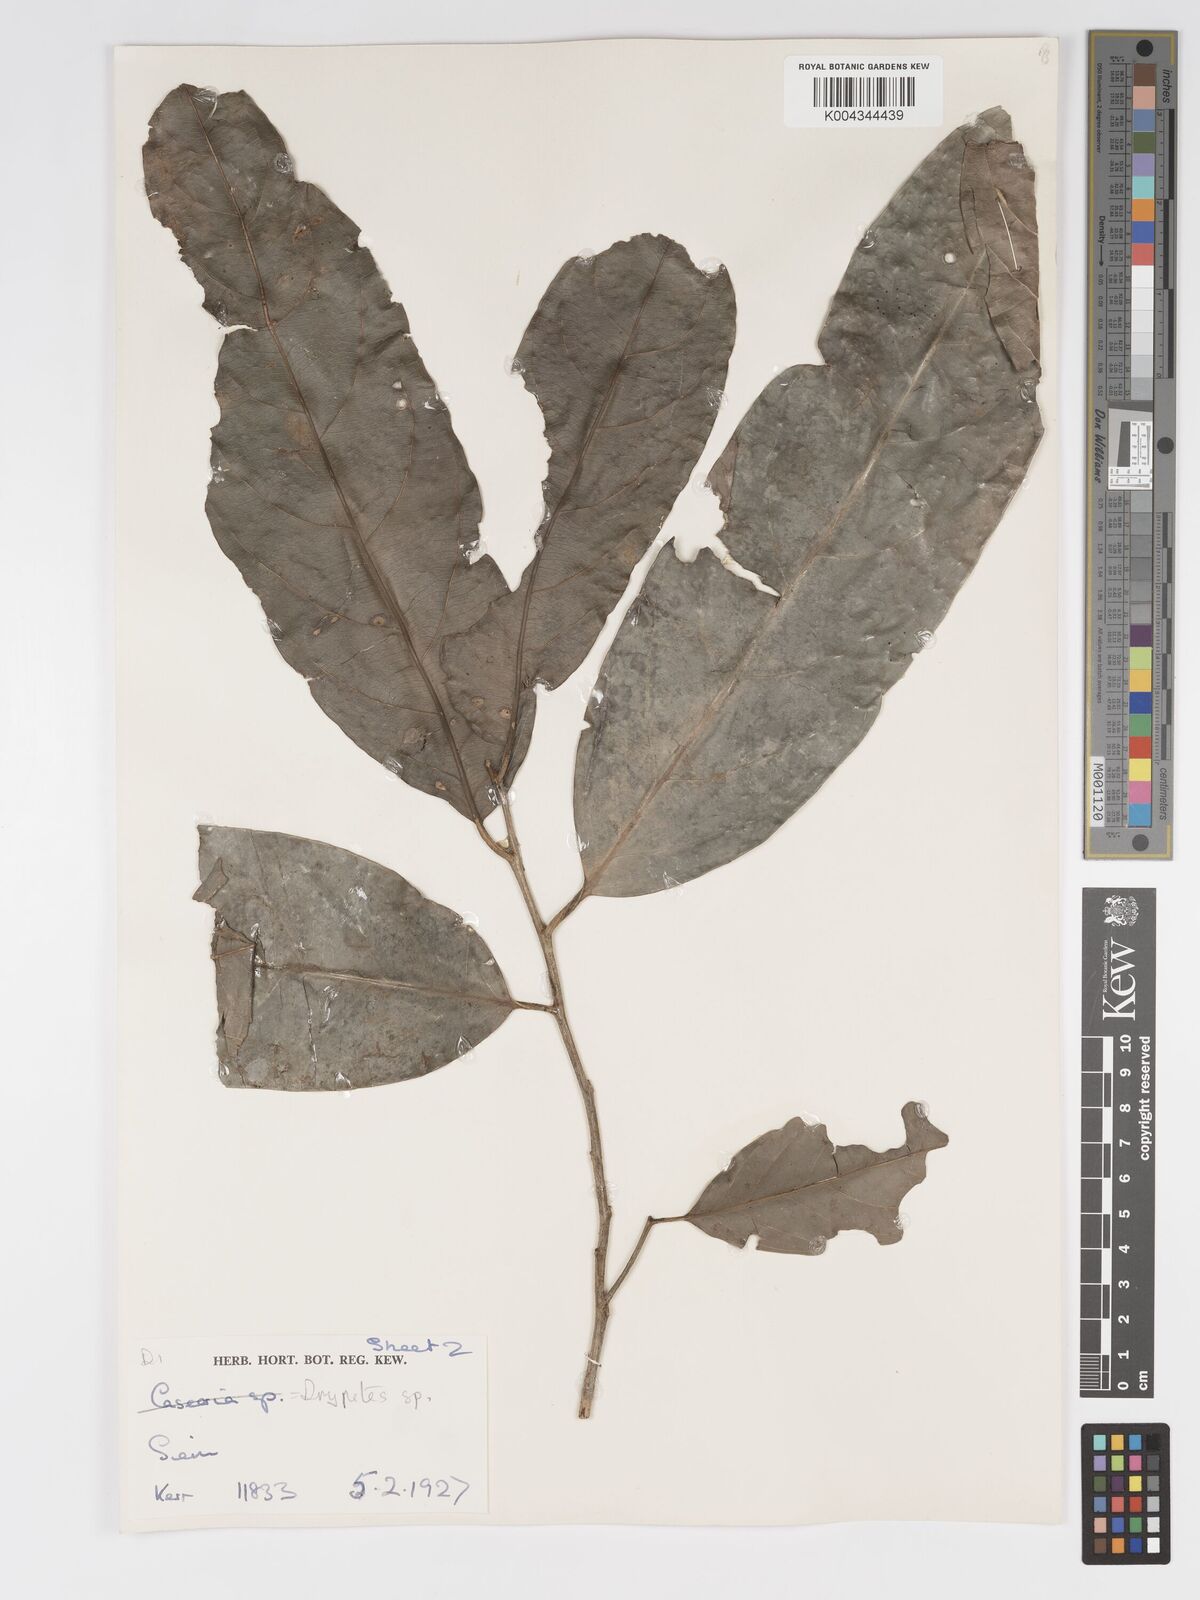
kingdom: Plantae
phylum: Tracheophyta
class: Magnoliopsida
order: Malpighiales
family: Putranjivaceae
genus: Drypetes
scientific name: Drypetes longifolia
